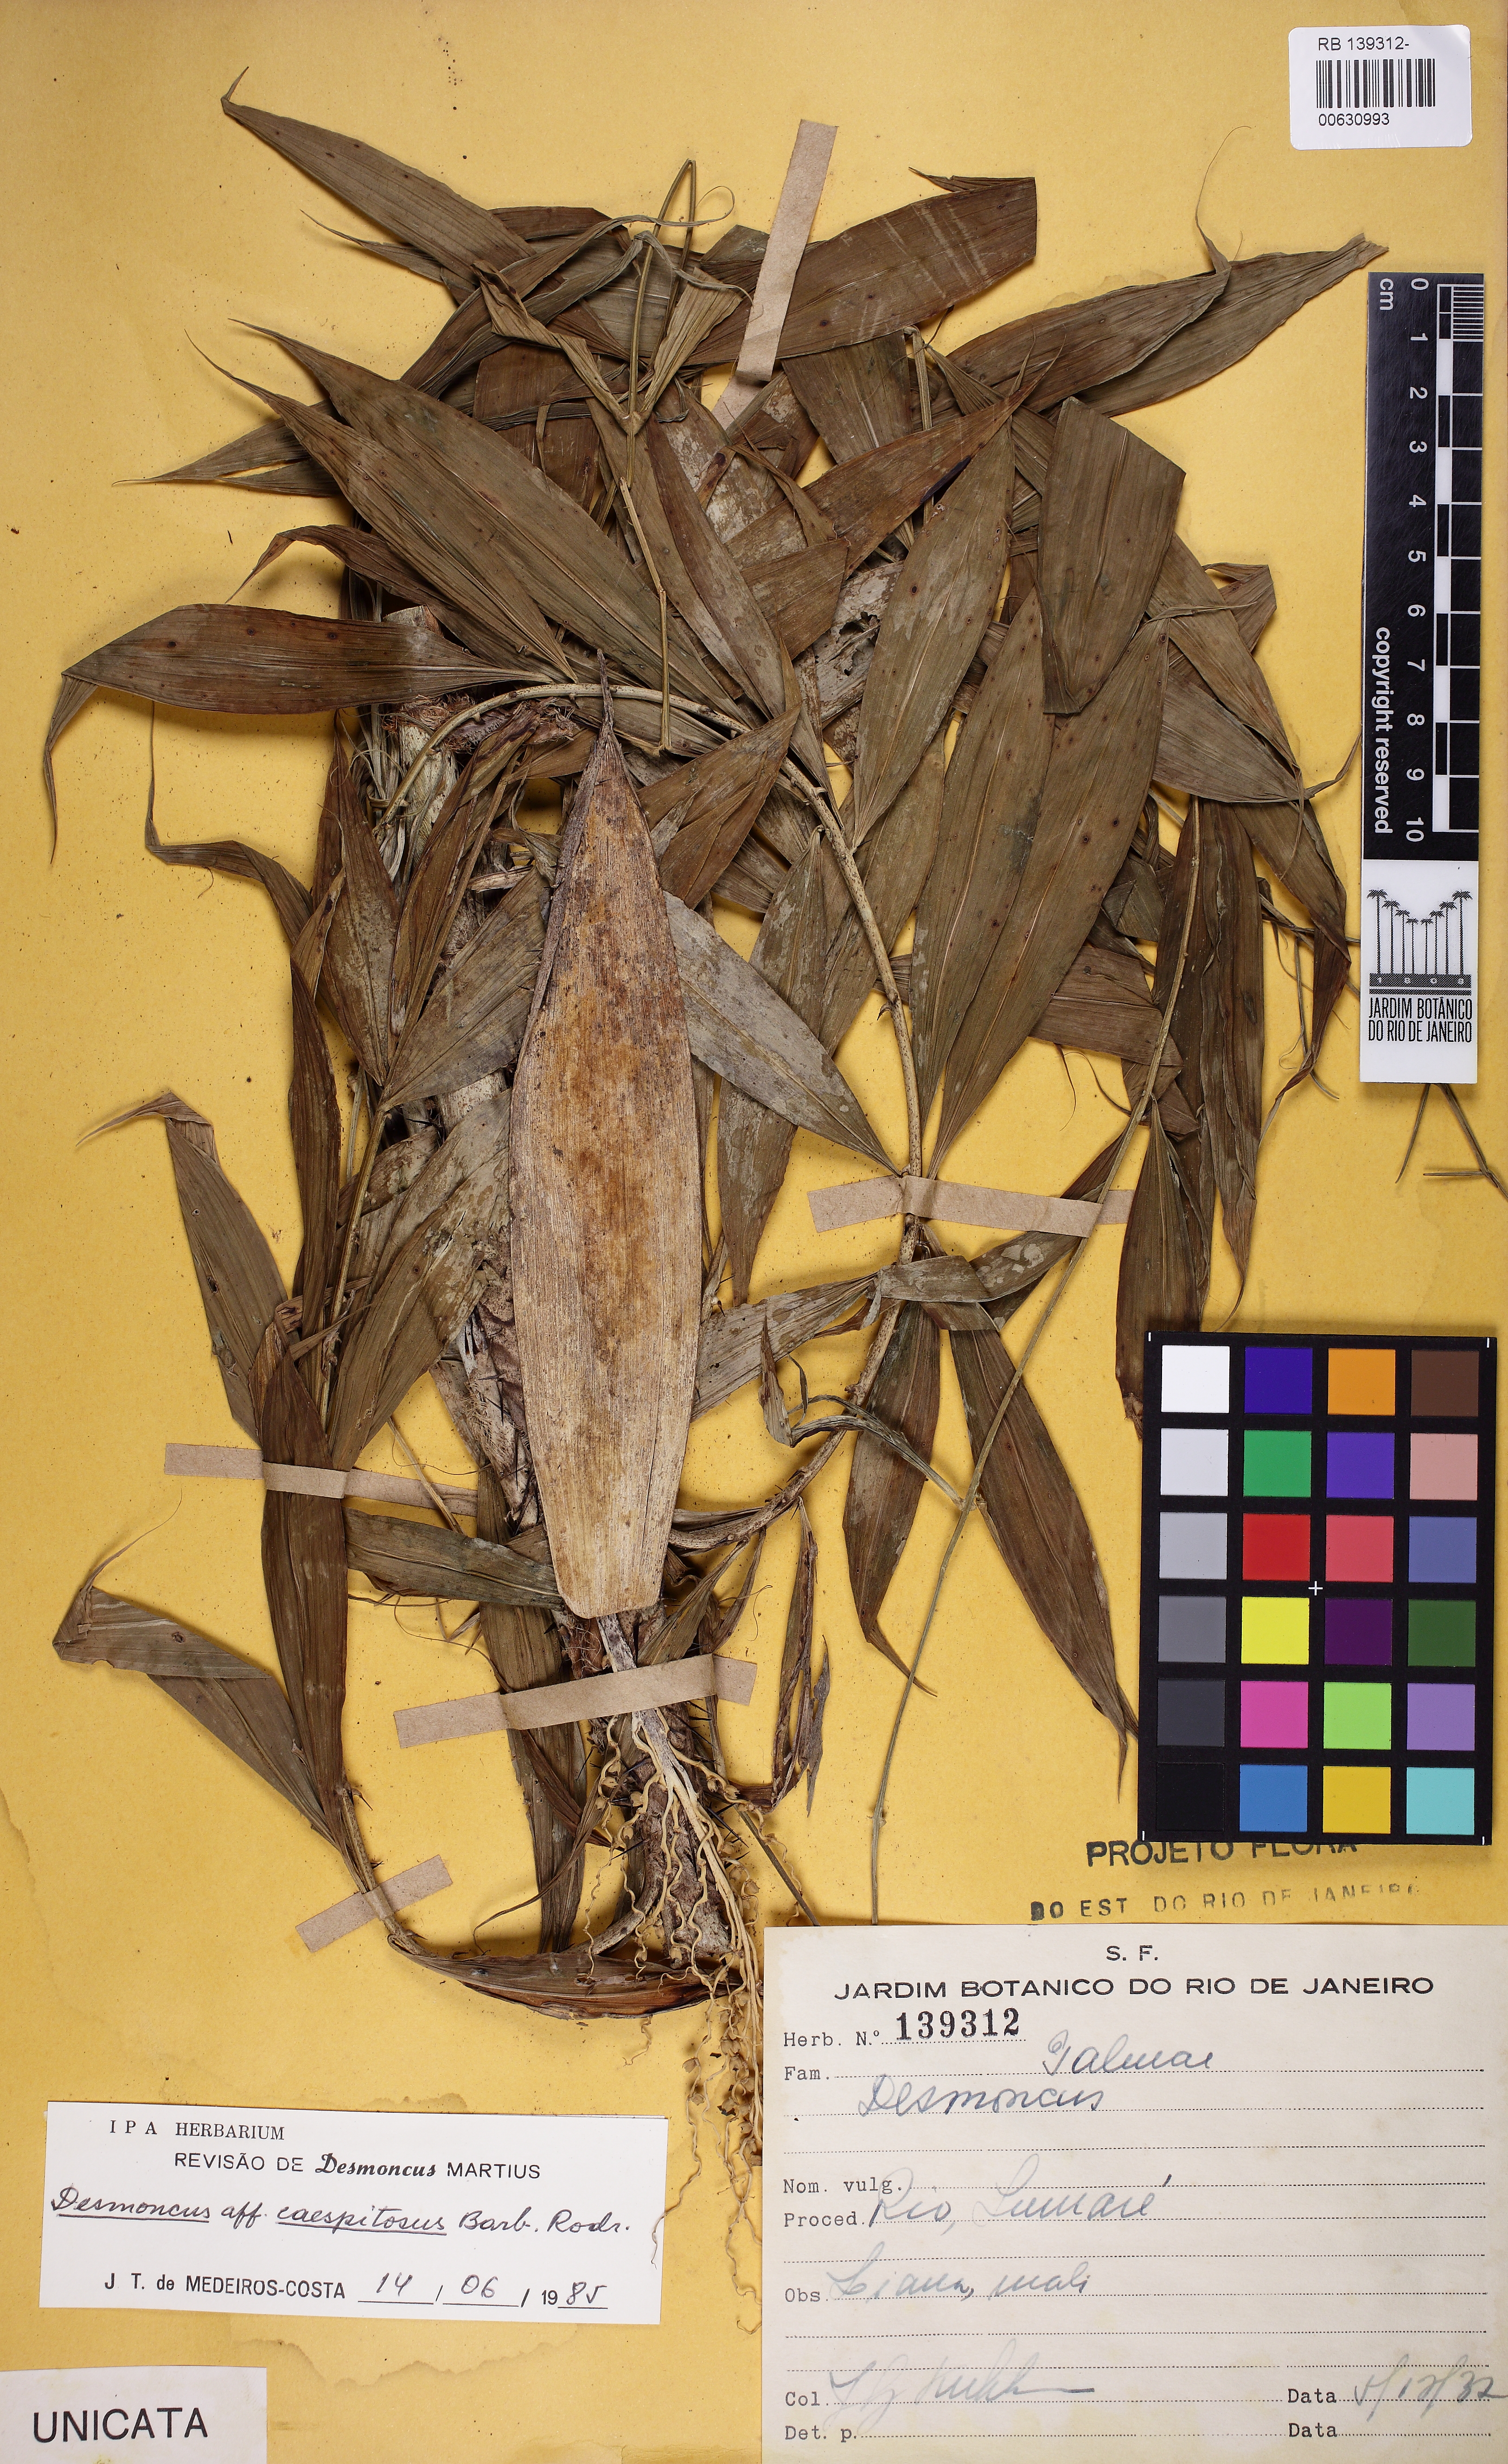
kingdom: Plantae
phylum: Tracheophyta
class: Liliopsida
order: Arecales
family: Arecaceae
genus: Desmoncus
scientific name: Desmoncus
